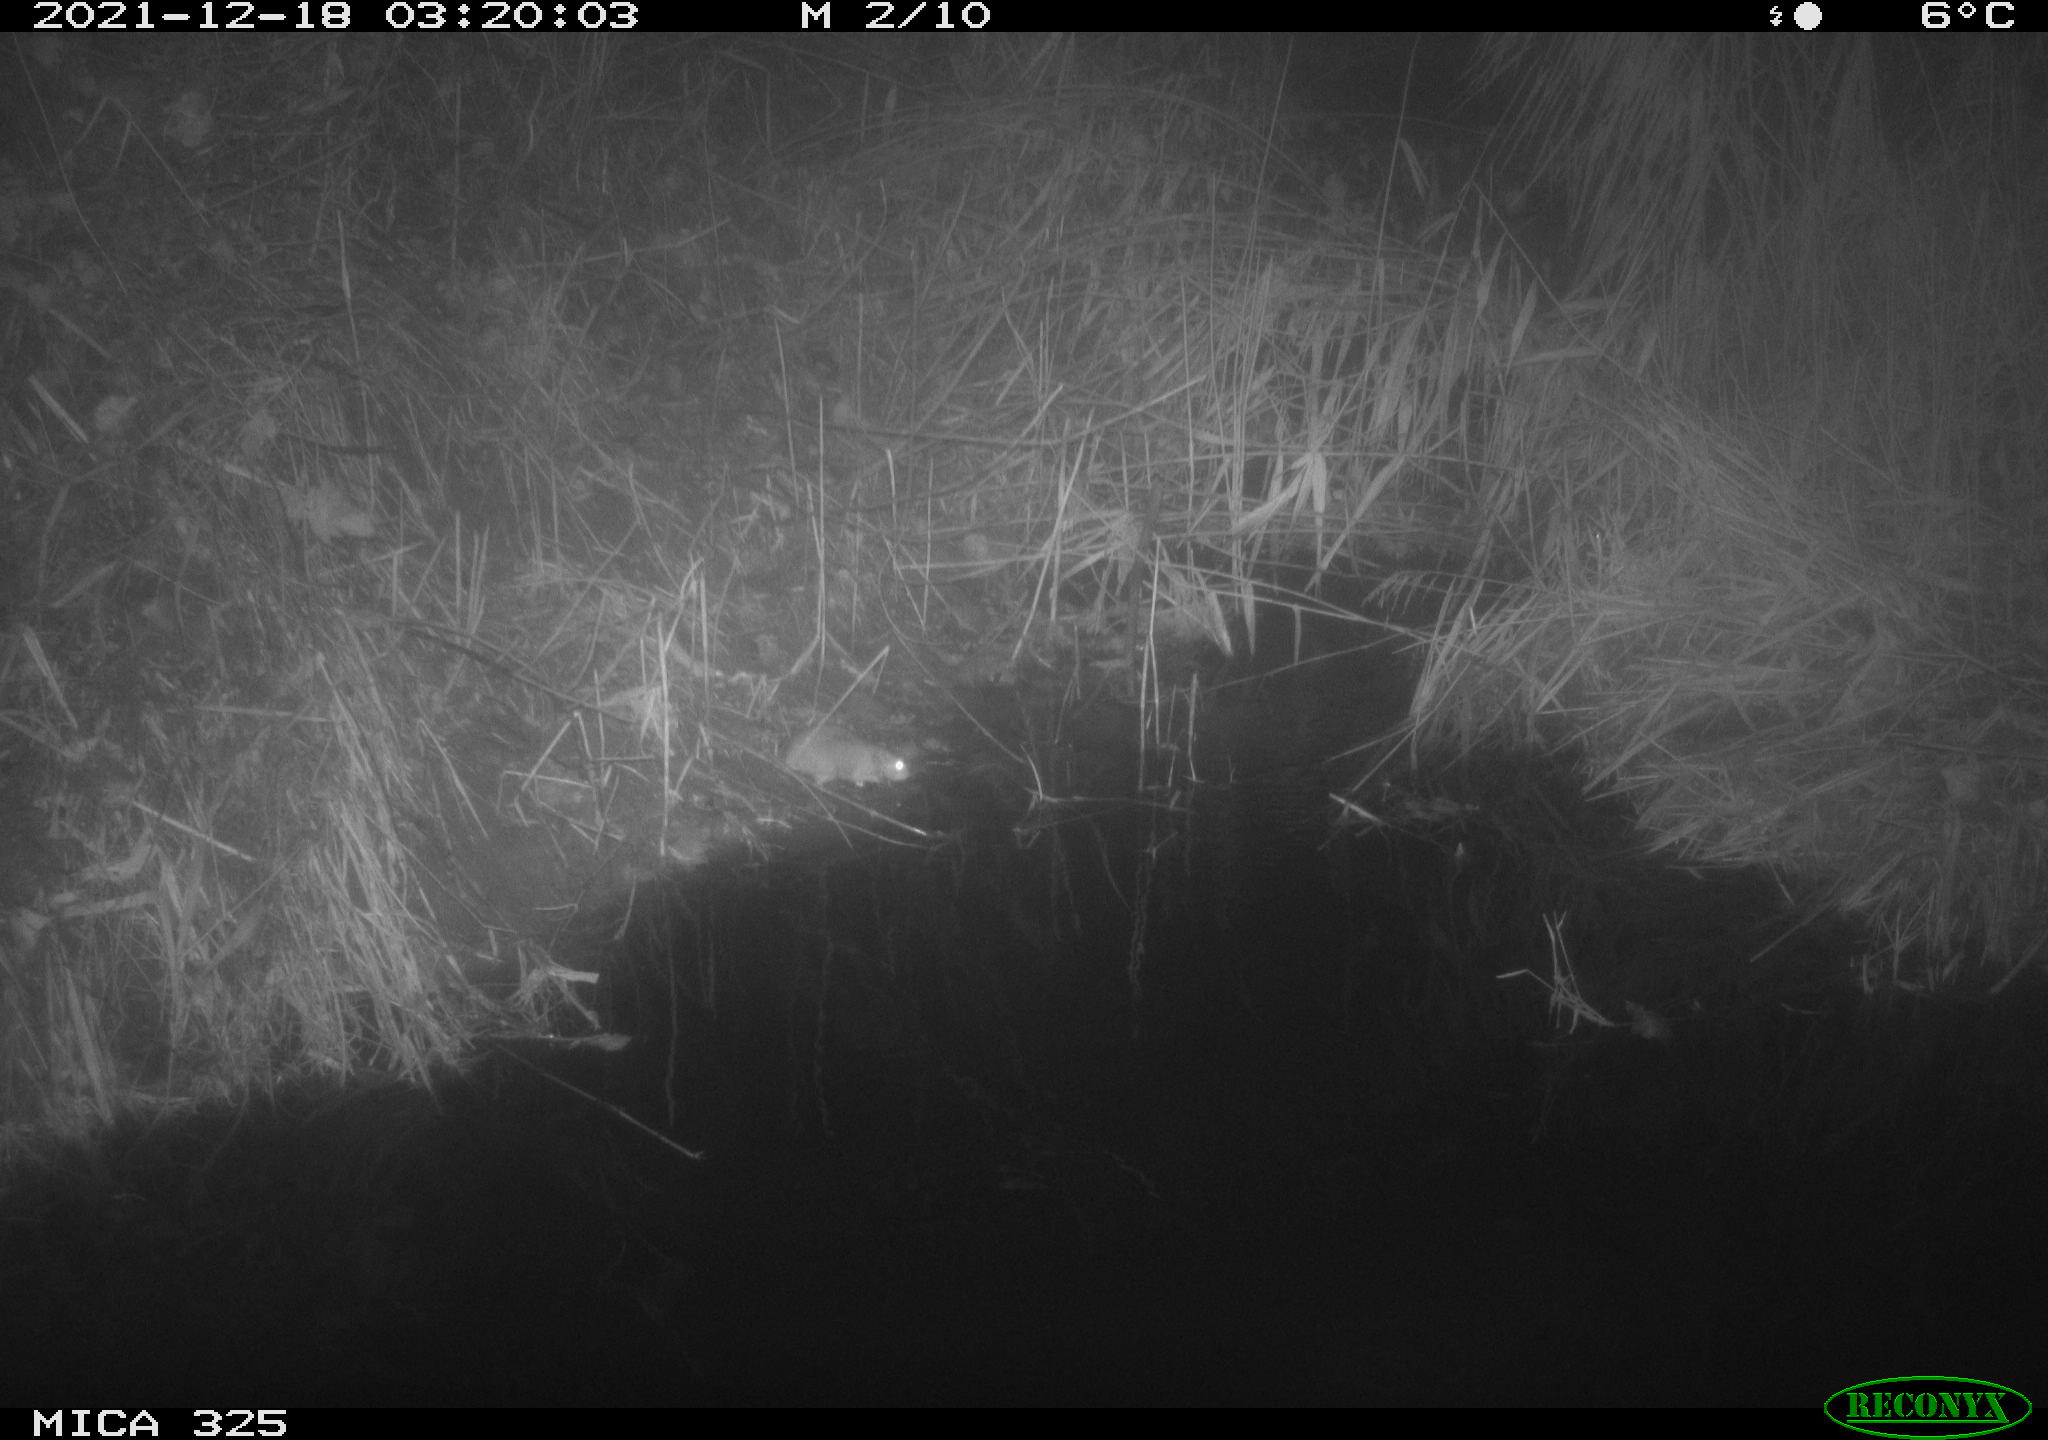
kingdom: Animalia
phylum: Chordata
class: Mammalia
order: Rodentia
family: Muridae
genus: Rattus
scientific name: Rattus norvegicus
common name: Brown rat
